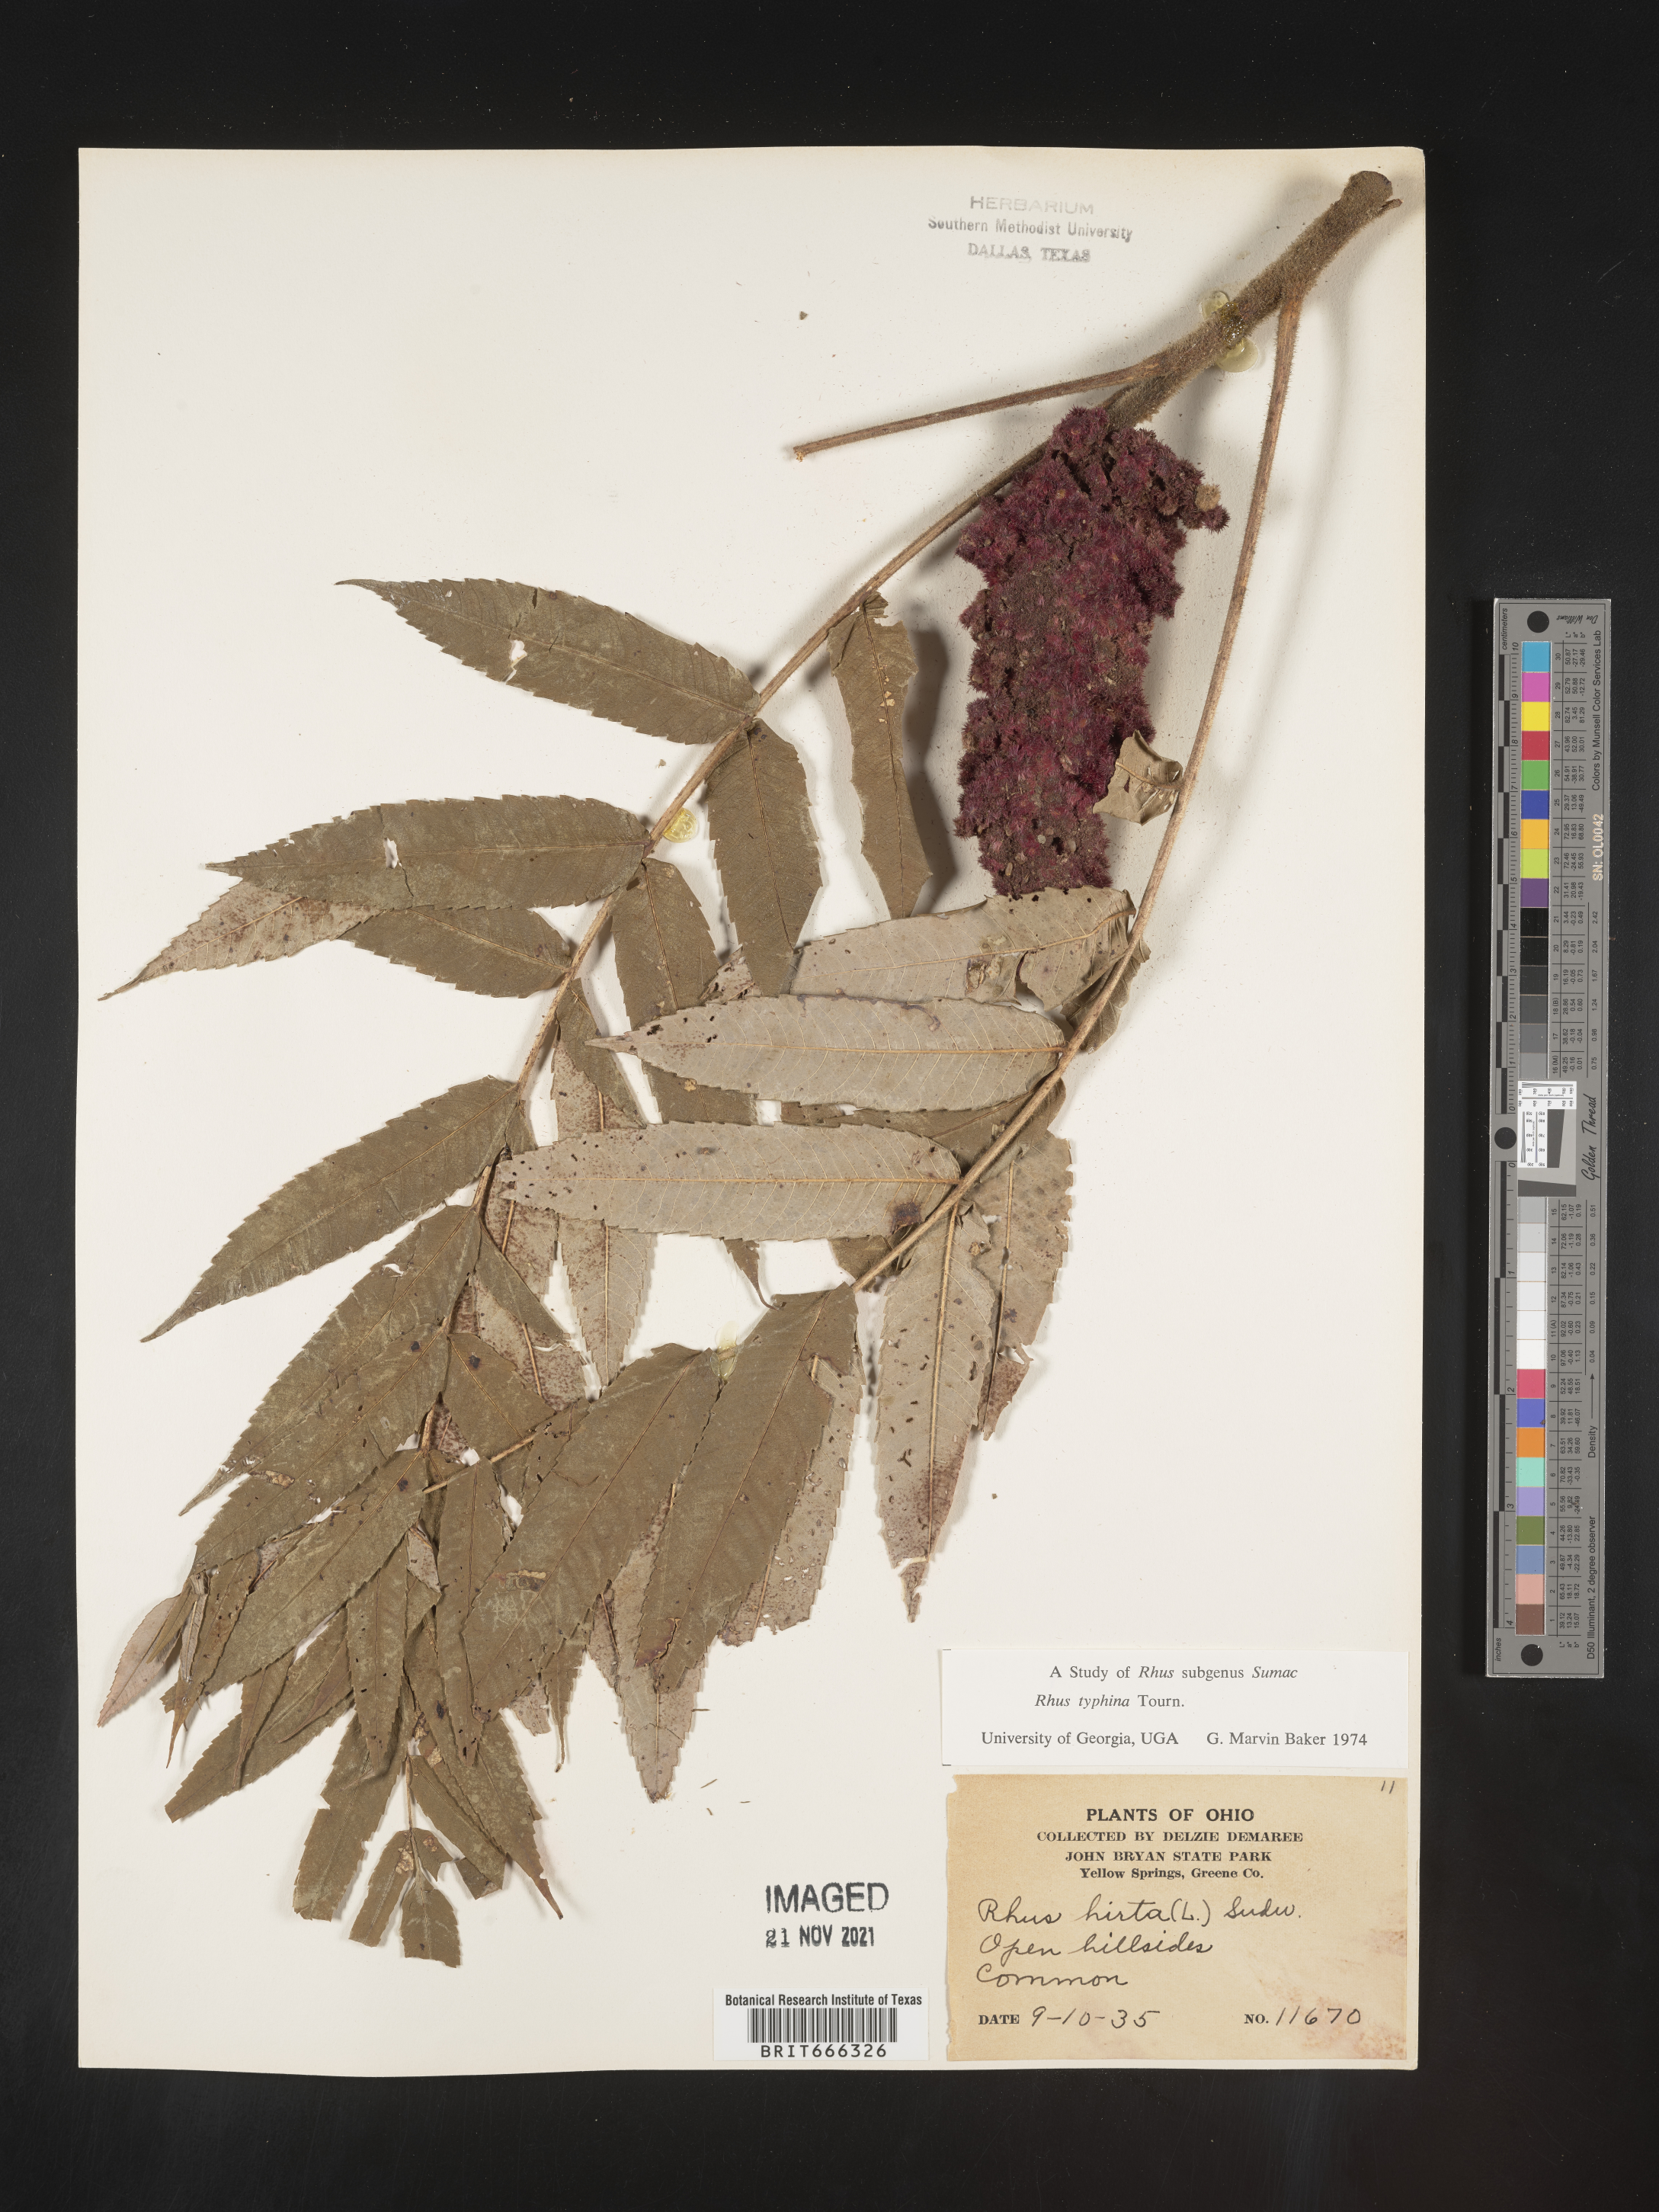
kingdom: Plantae
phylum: Tracheophyta
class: Magnoliopsida
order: Sapindales
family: Anacardiaceae
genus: Rhus
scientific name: Rhus typhina
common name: Staghorn sumac
